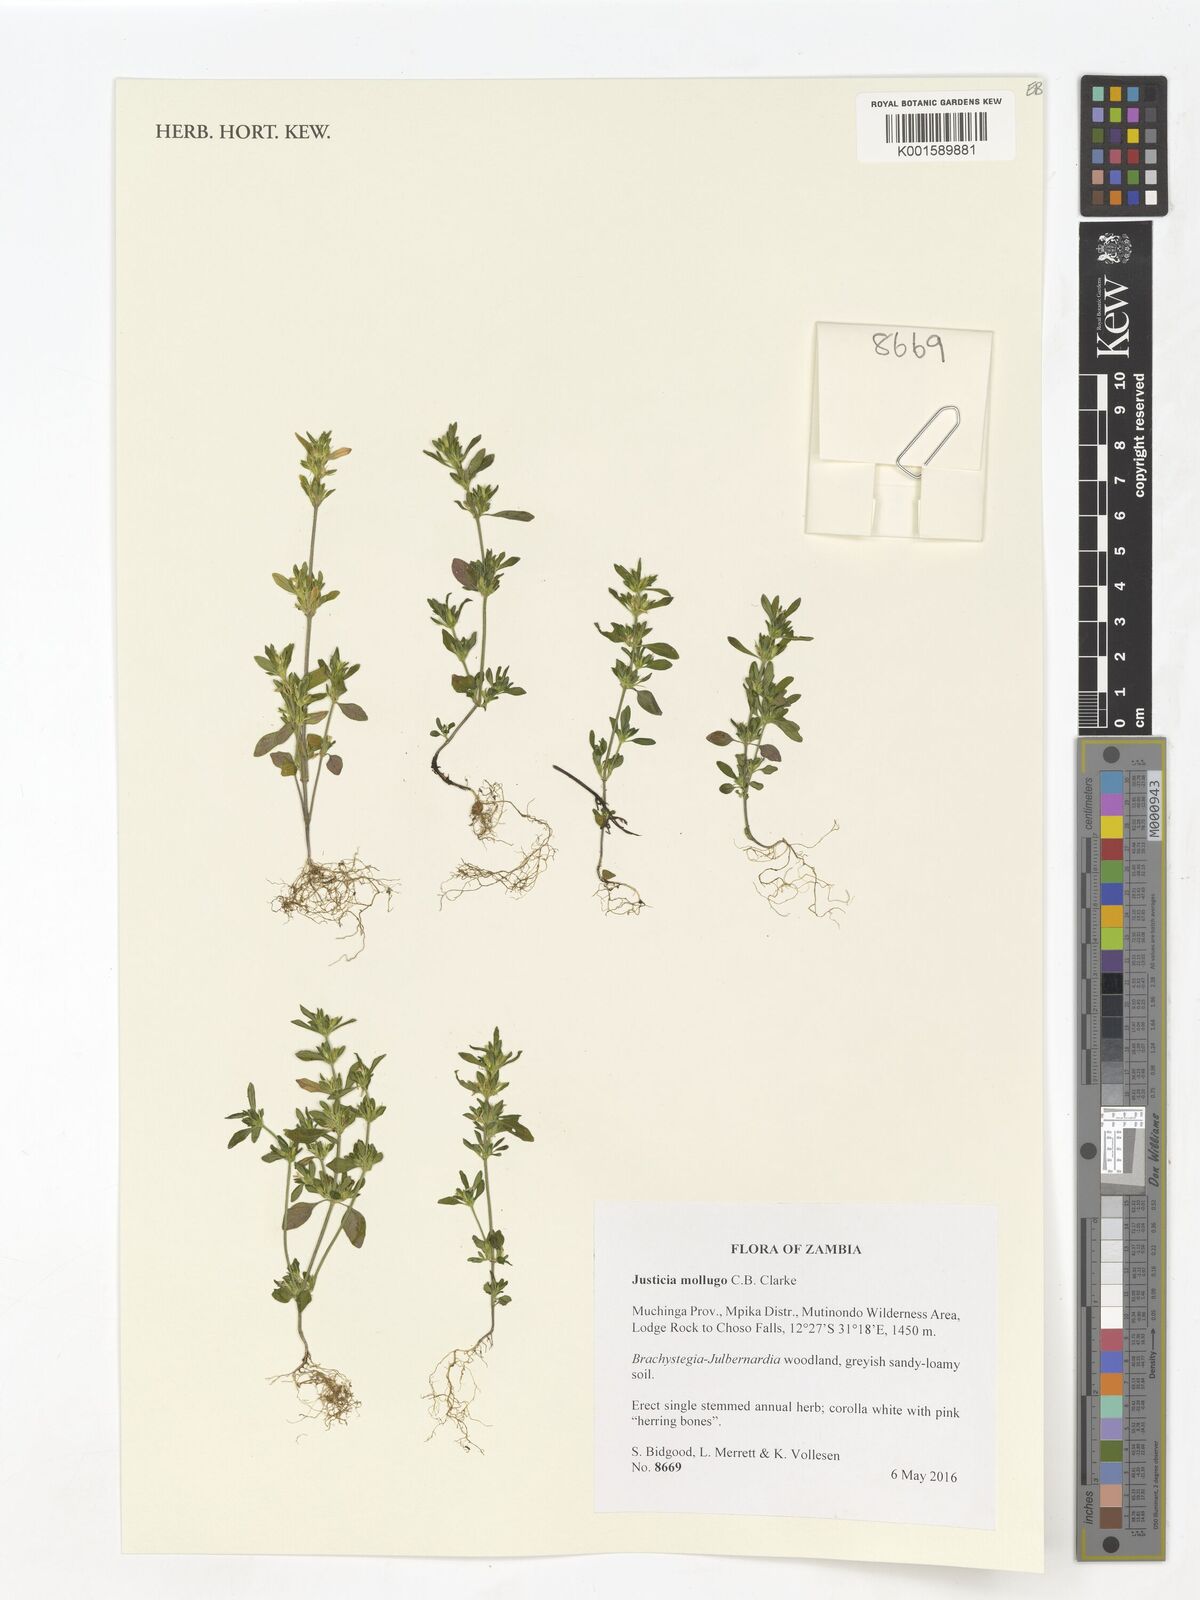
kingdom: Plantae
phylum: Tracheophyta
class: Magnoliopsida
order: Lamiales
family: Acanthaceae
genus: Justicia
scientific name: Justicia mollugo
